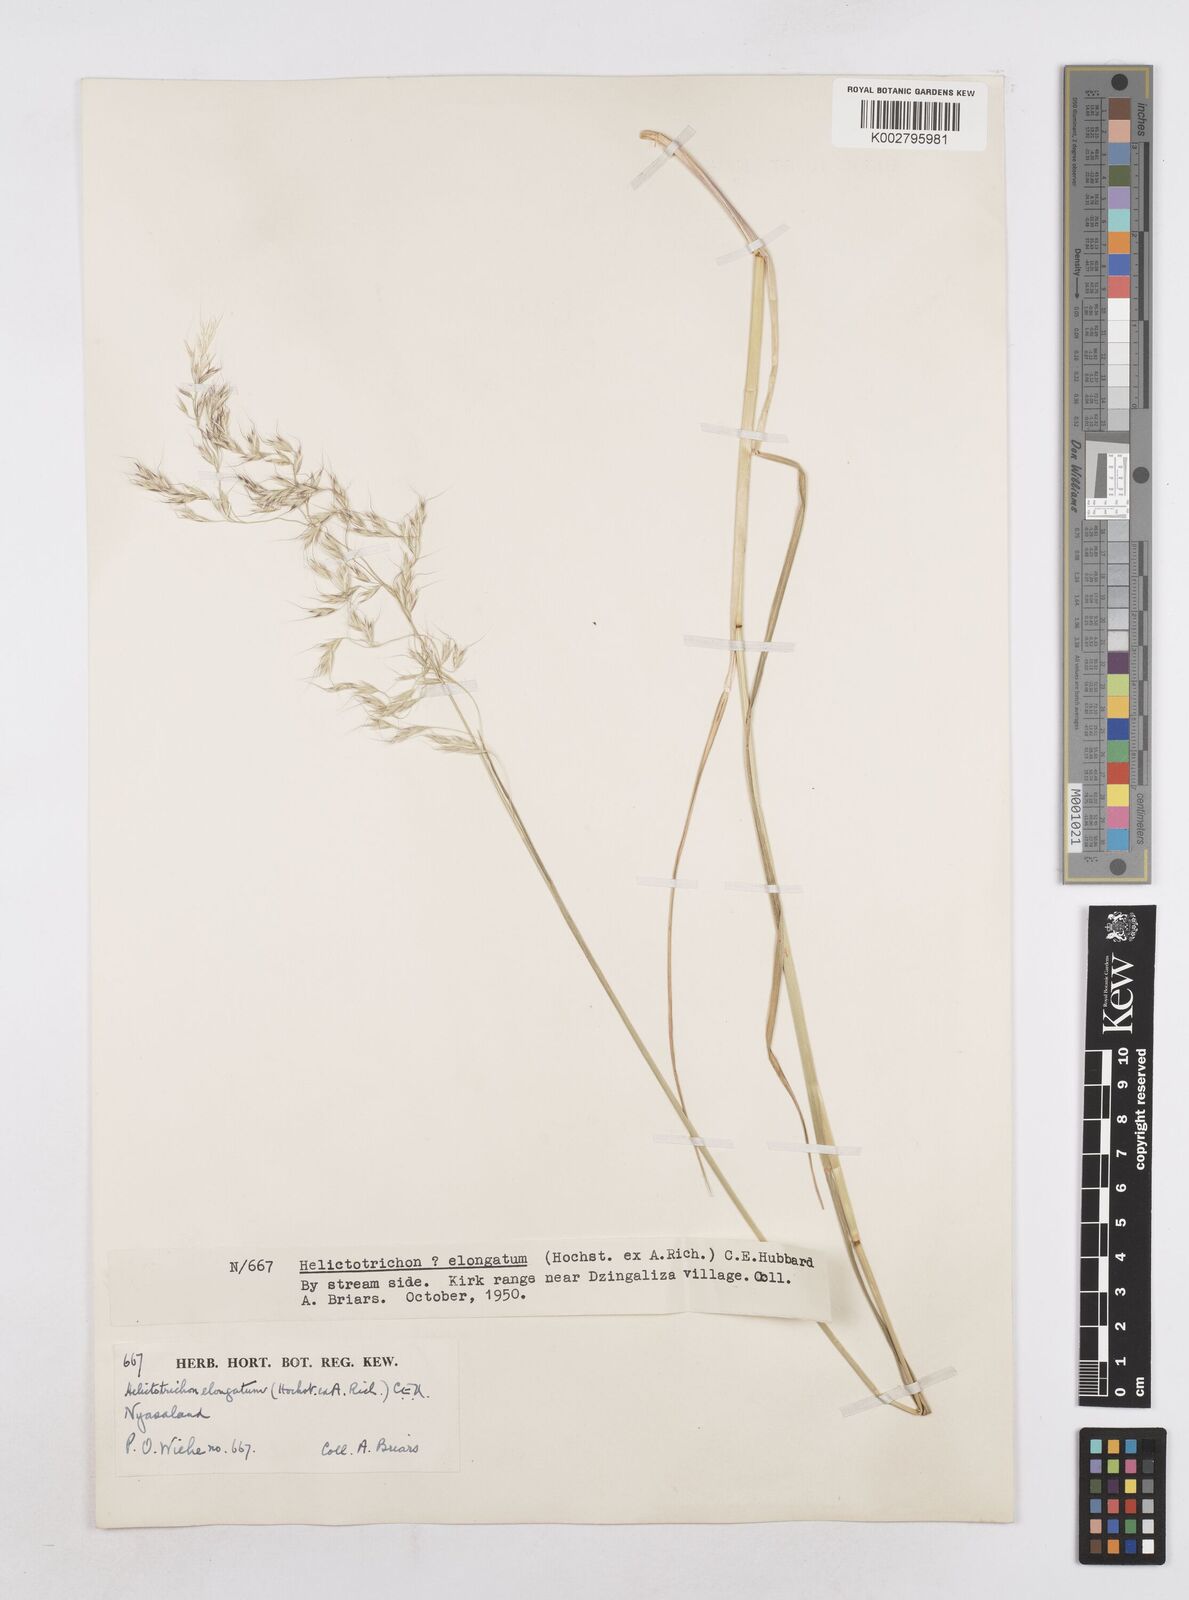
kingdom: Plantae
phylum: Tracheophyta
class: Liliopsida
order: Poales
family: Poaceae
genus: Trisetopsis
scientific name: Trisetopsis elongata
